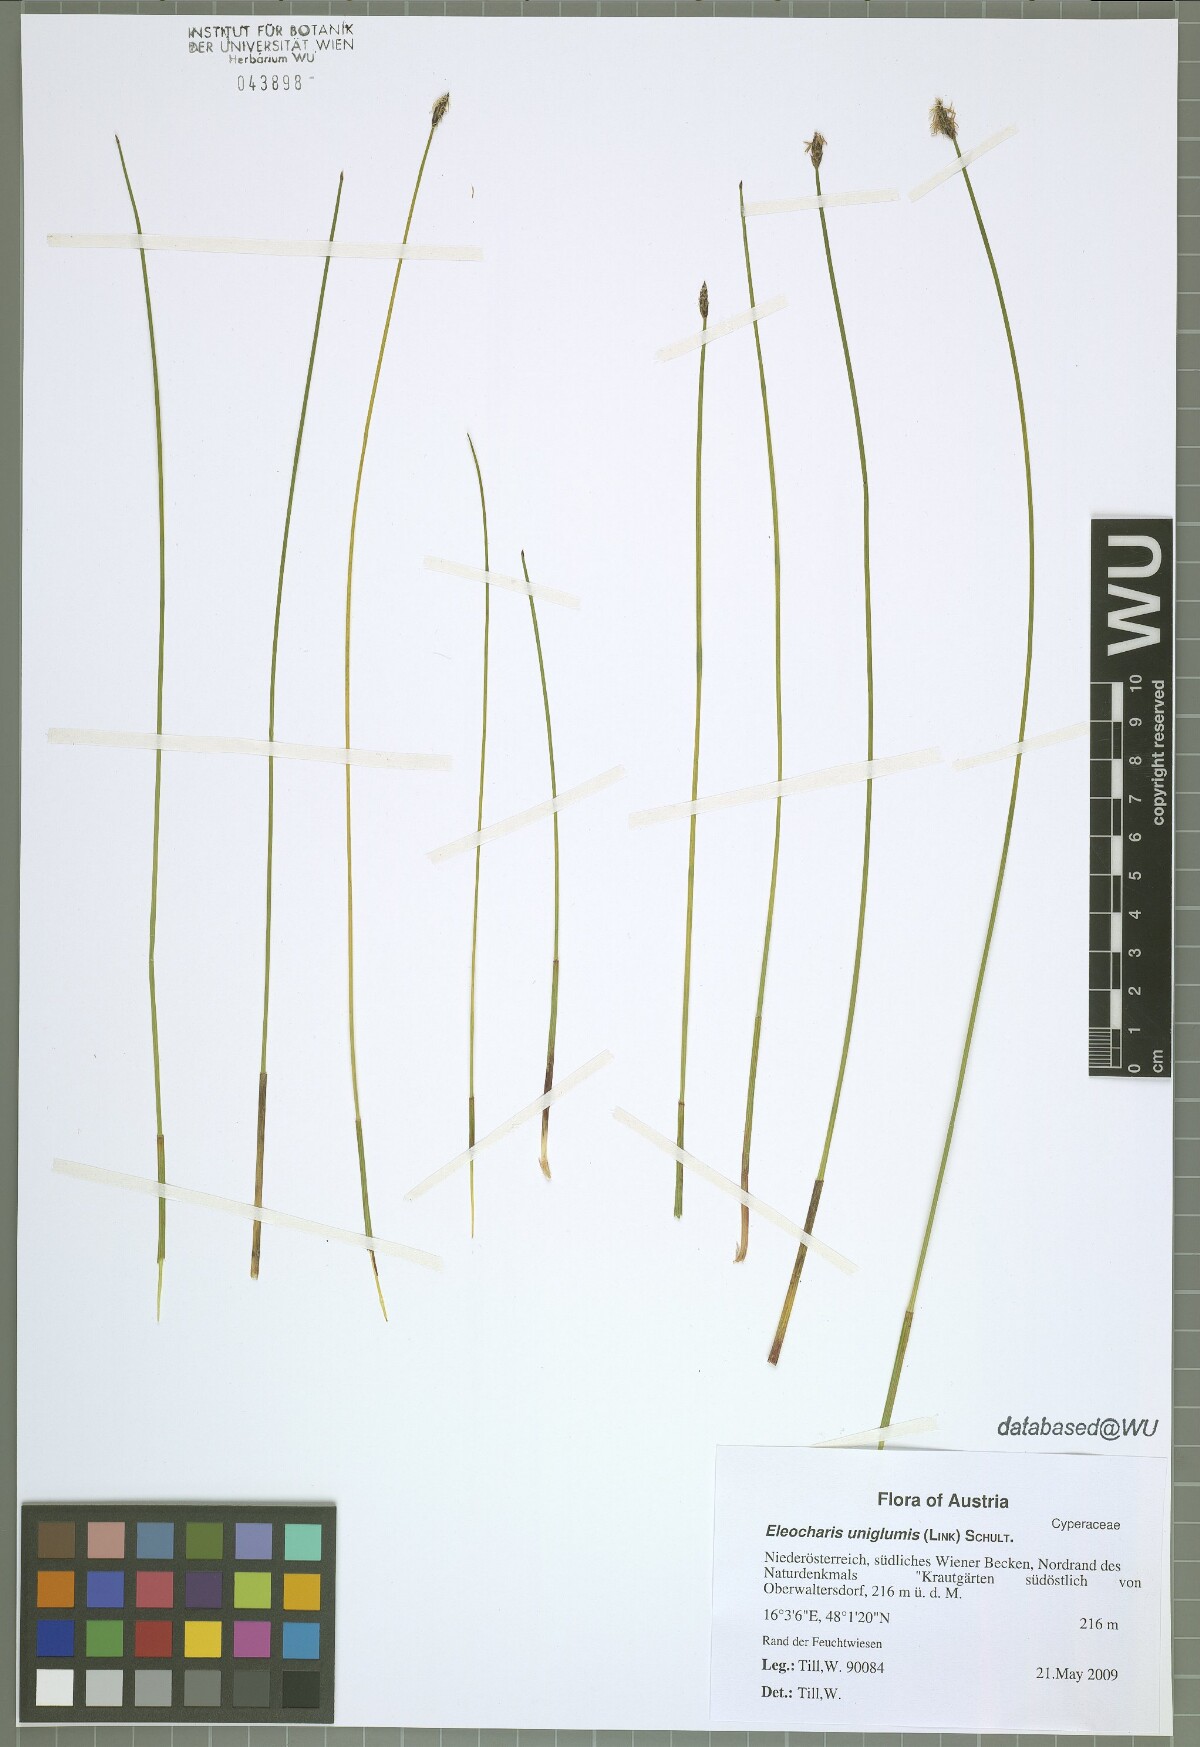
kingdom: Plantae
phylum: Tracheophyta
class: Liliopsida
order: Poales
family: Cyperaceae
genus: Eleocharis
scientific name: Eleocharis uniglumis
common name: Slender spike-rush
